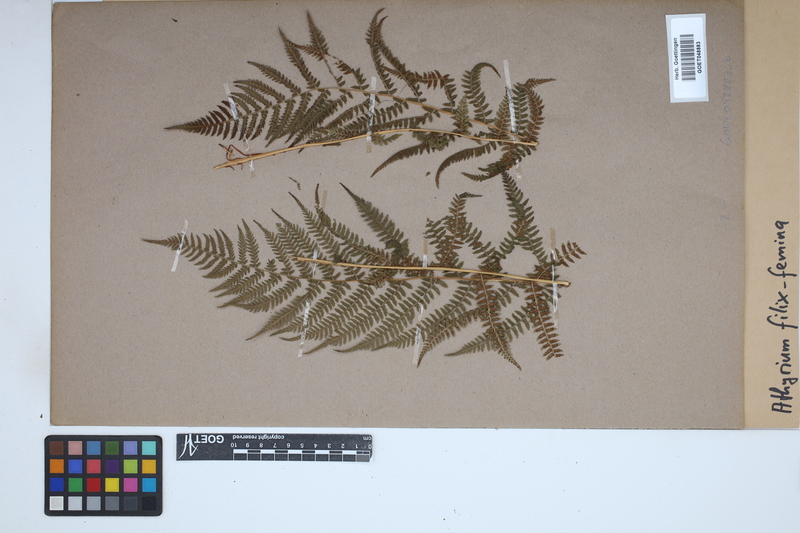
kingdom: Plantae
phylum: Tracheophyta
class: Polypodiopsida
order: Polypodiales
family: Athyriaceae
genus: Athyrium
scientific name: Athyrium filix-femina
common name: Lady fern
